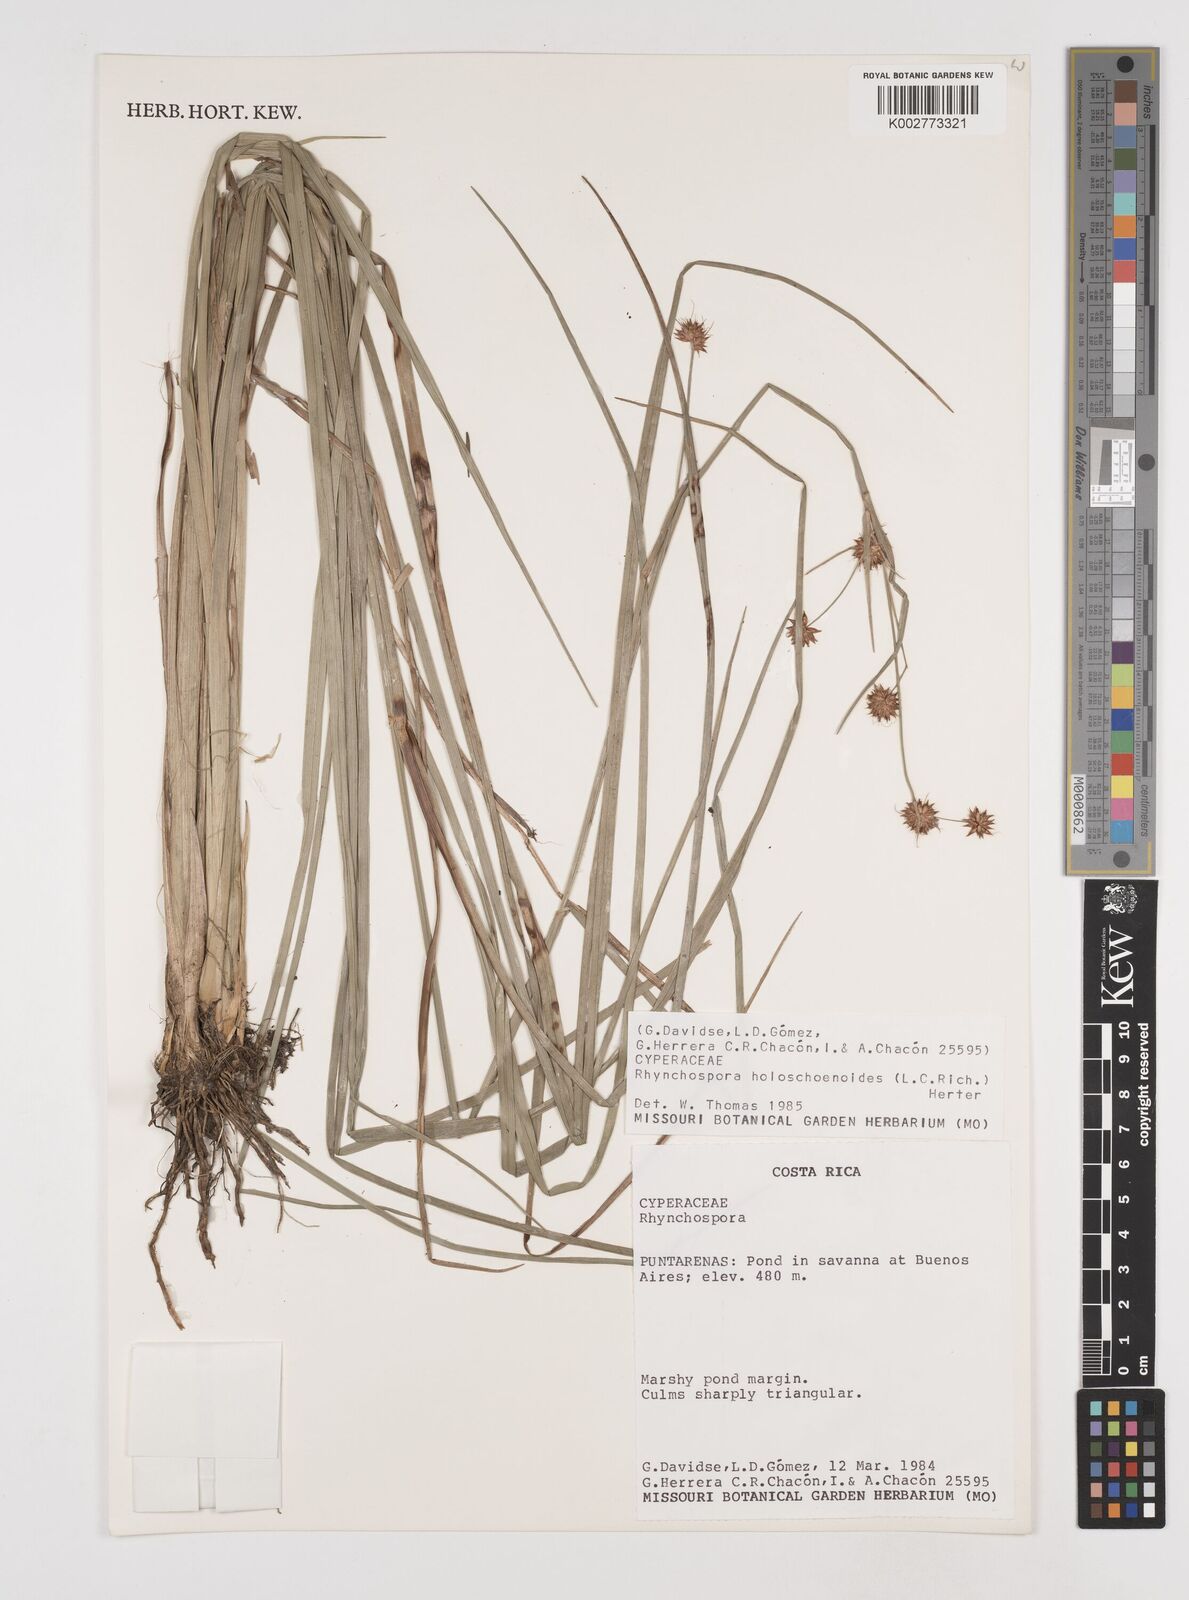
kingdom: Plantae
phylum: Tracheophyta
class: Liliopsida
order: Poales
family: Cyperaceae
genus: Rhynchospora
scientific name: Rhynchospora holoschoenoides
